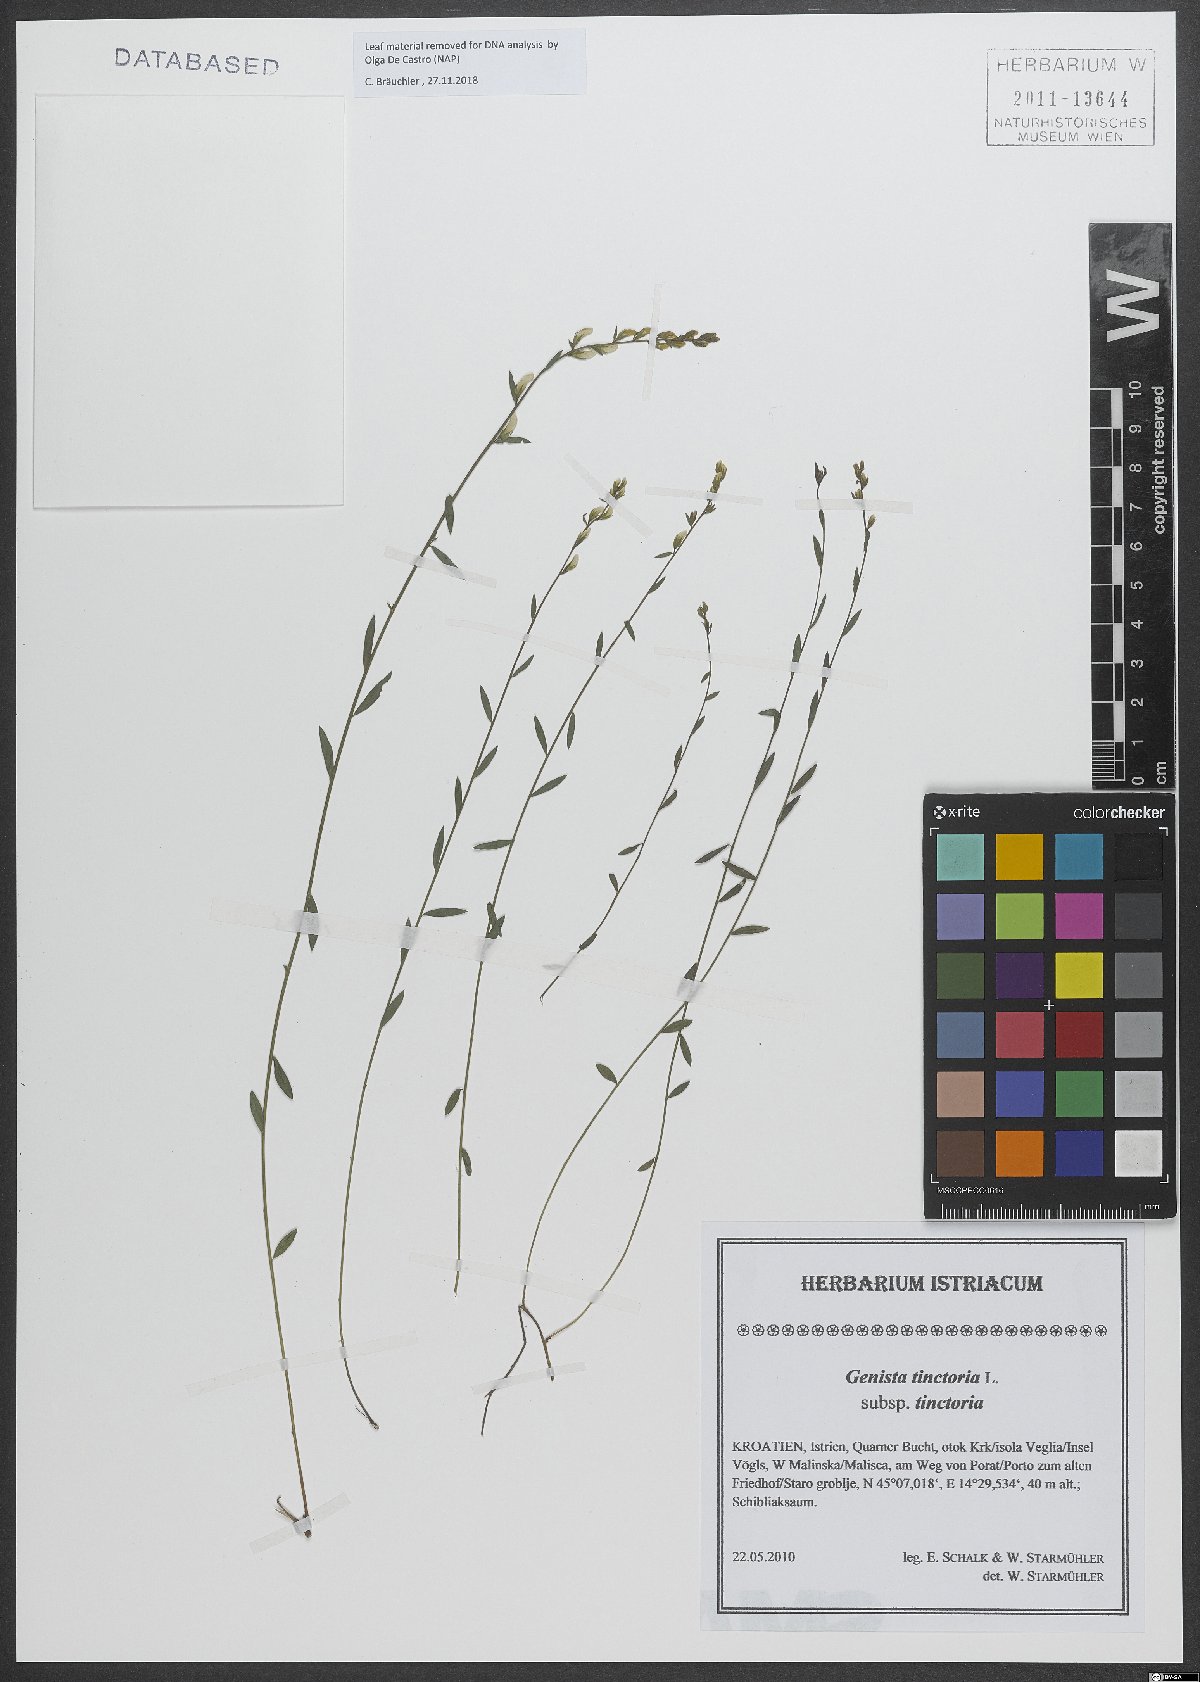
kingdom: Plantae
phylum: Tracheophyta
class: Magnoliopsida
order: Fabales
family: Fabaceae
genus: Genista
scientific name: Genista tinctoria
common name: Dyer's greenweed
